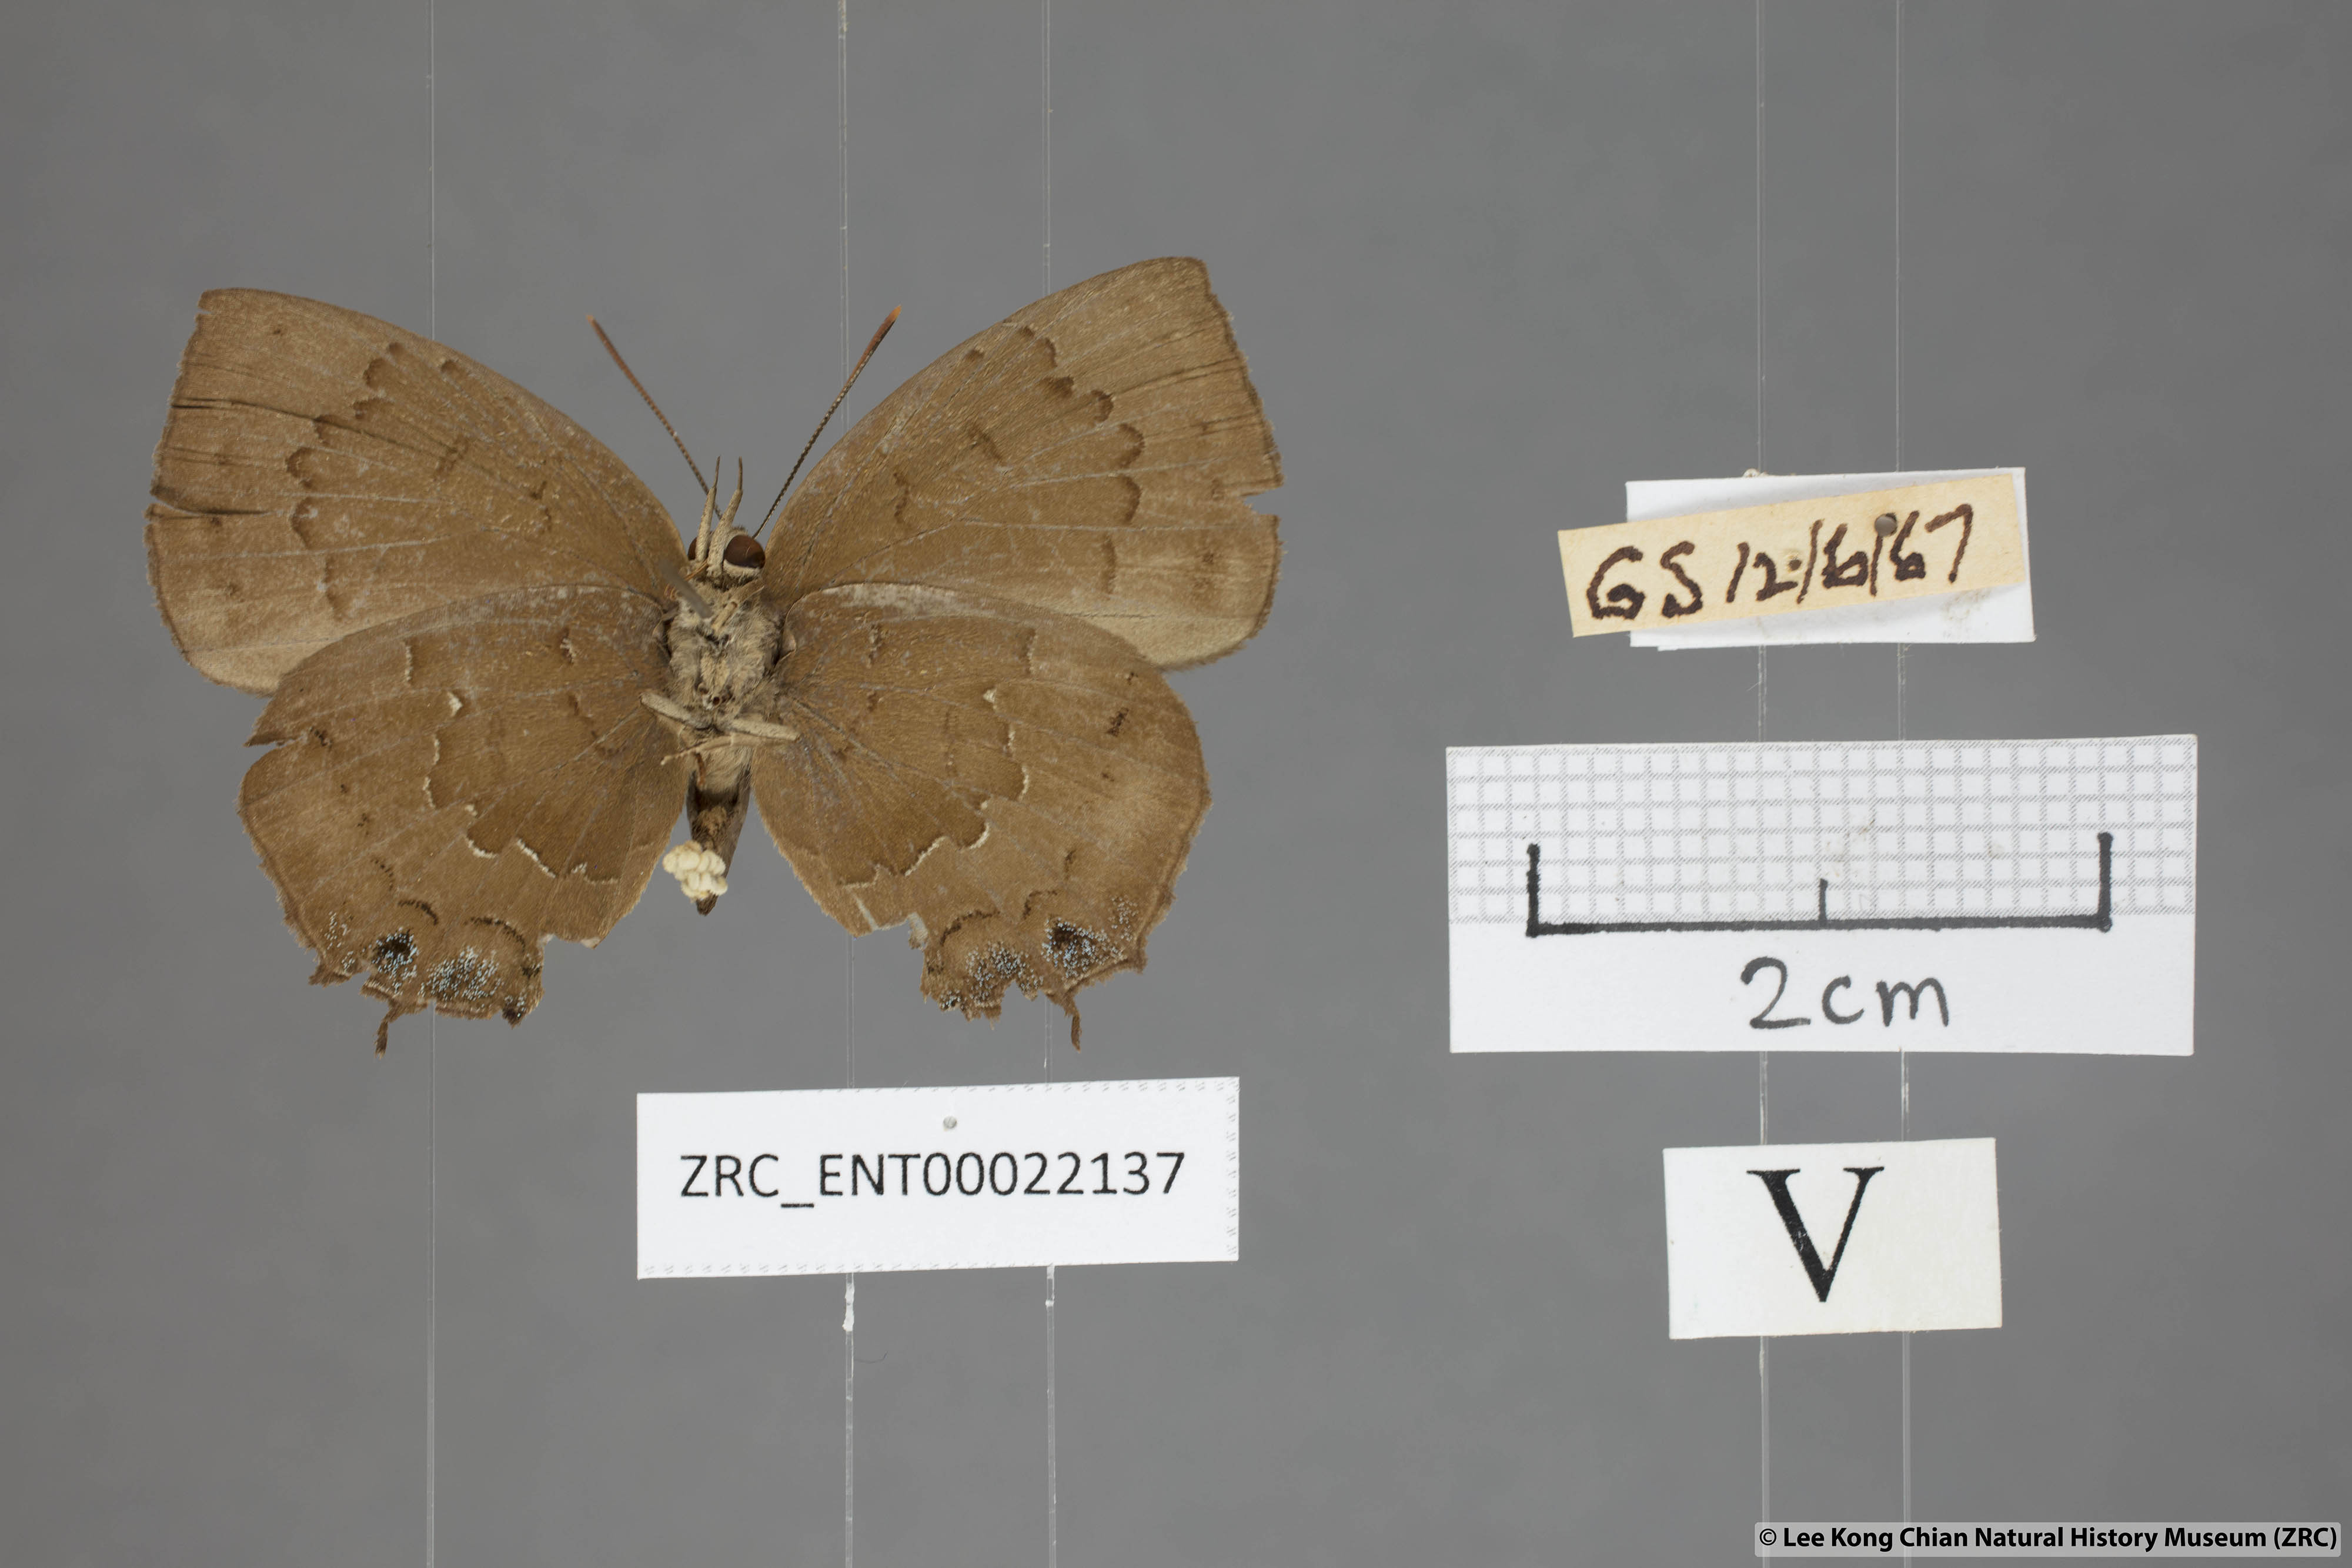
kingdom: Animalia
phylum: Arthropoda
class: Insecta
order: Lepidoptera
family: Lycaenidae
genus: Surendra
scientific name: Surendra vivarna
